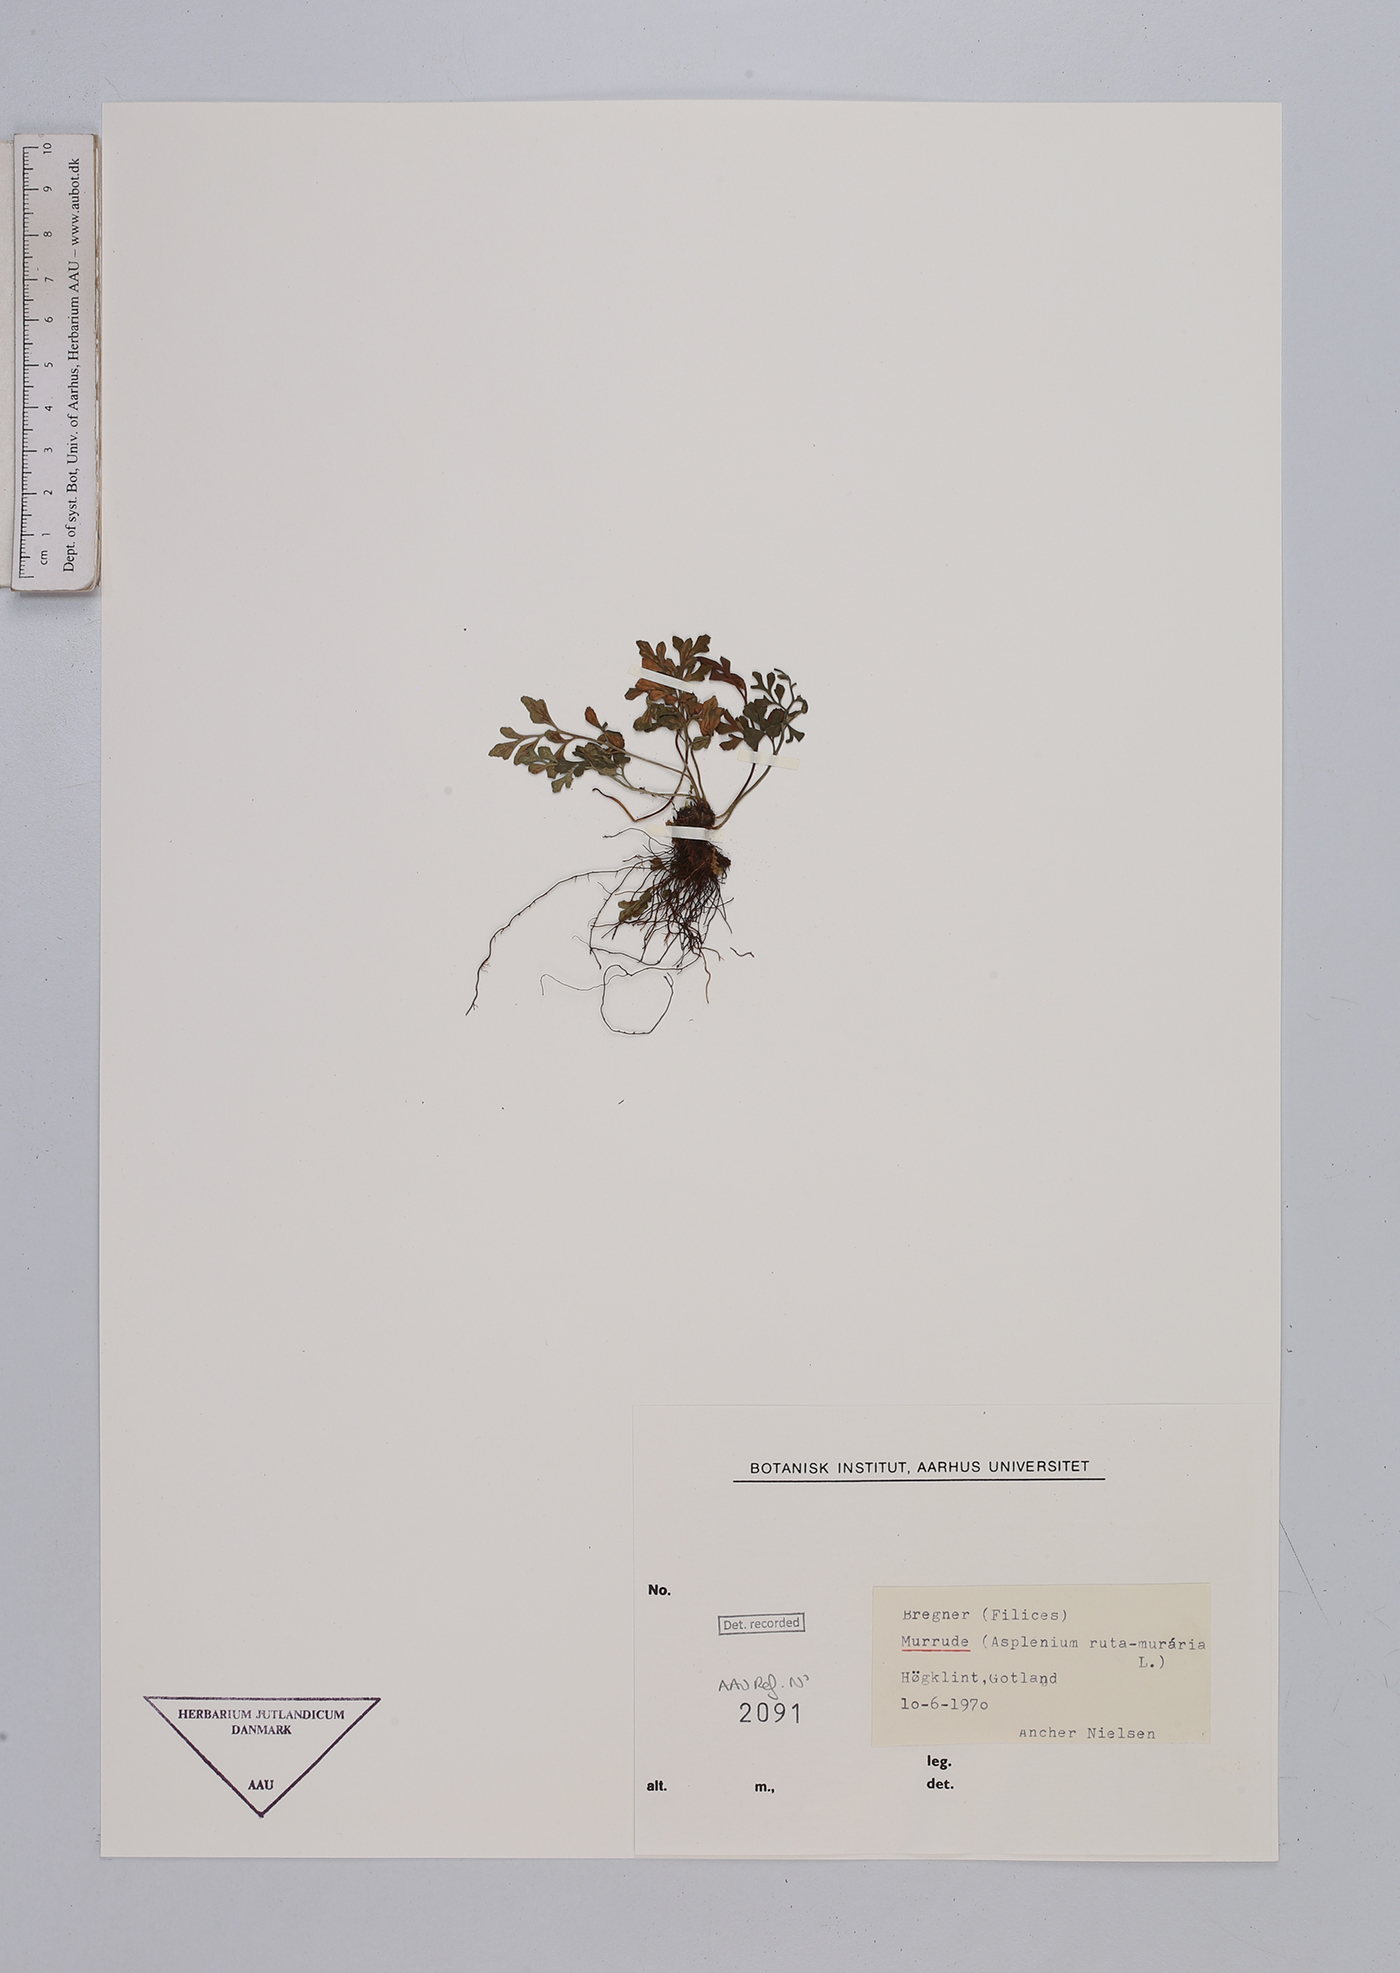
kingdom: Plantae
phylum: Tracheophyta
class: Polypodiopsida
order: Polypodiales
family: Aspleniaceae
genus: Asplenium
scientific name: Asplenium ruta-muraria
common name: Wall-rue
